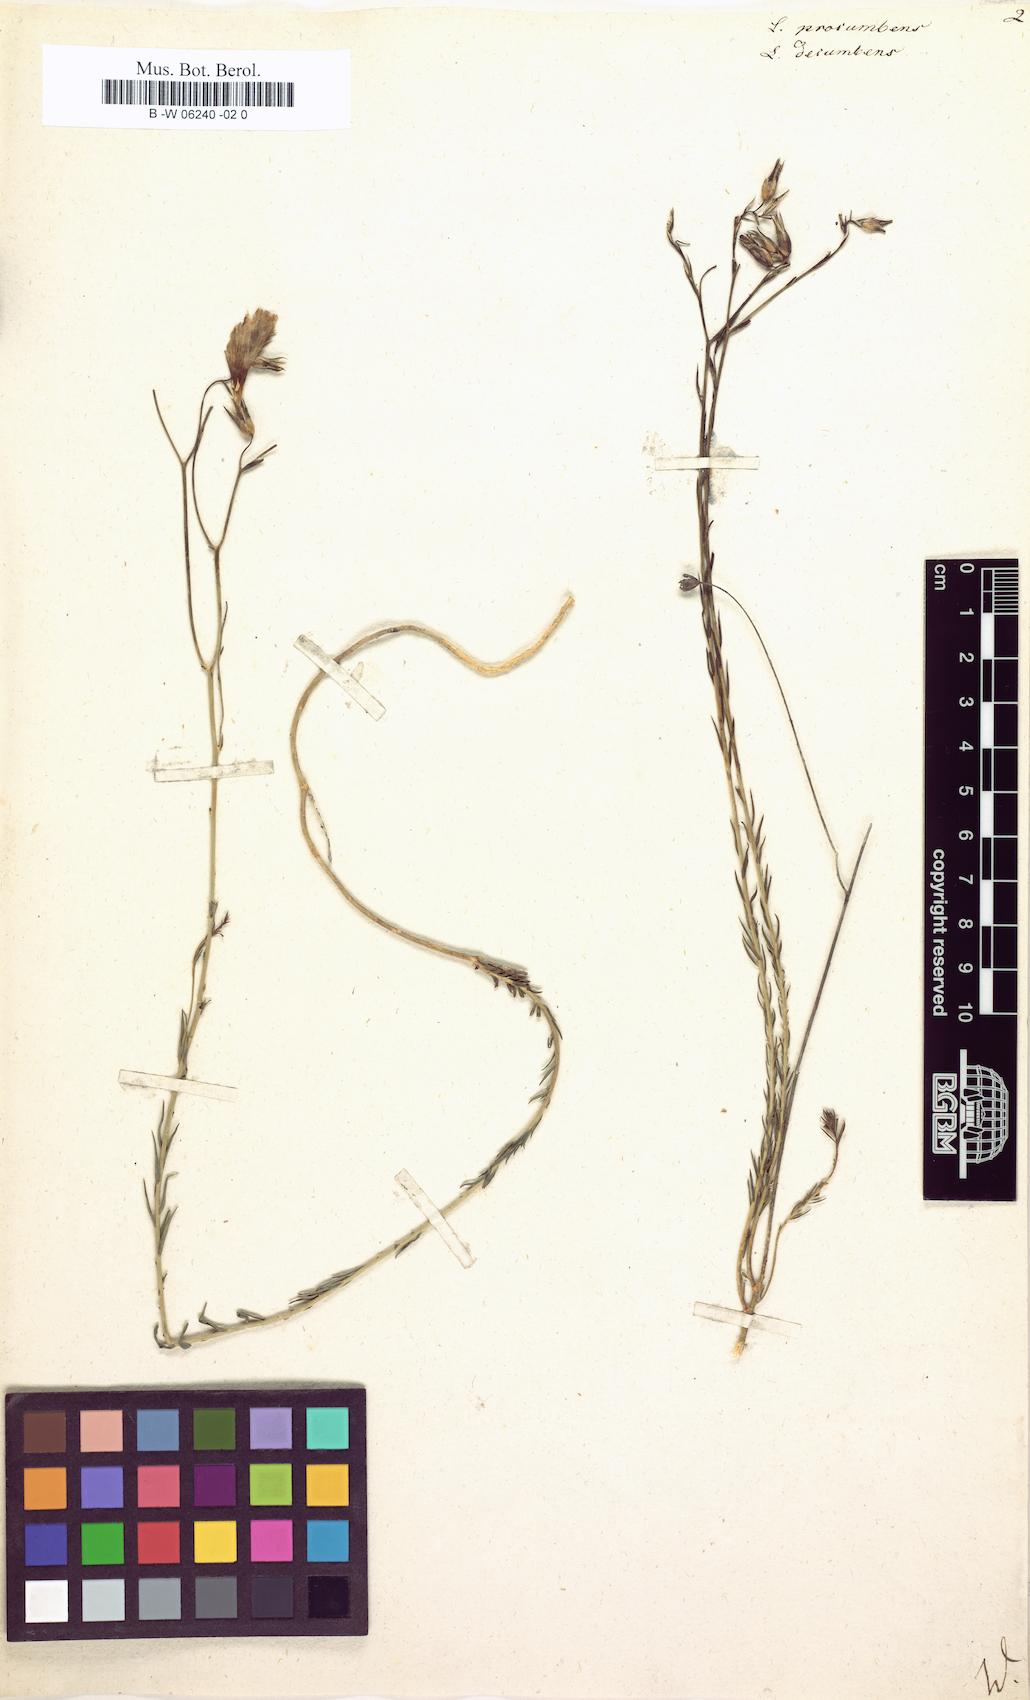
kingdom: Plantae
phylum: Tracheophyta
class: Magnoliopsida
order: Malpighiales
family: Linaceae
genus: Linum
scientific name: Linum procumbens
